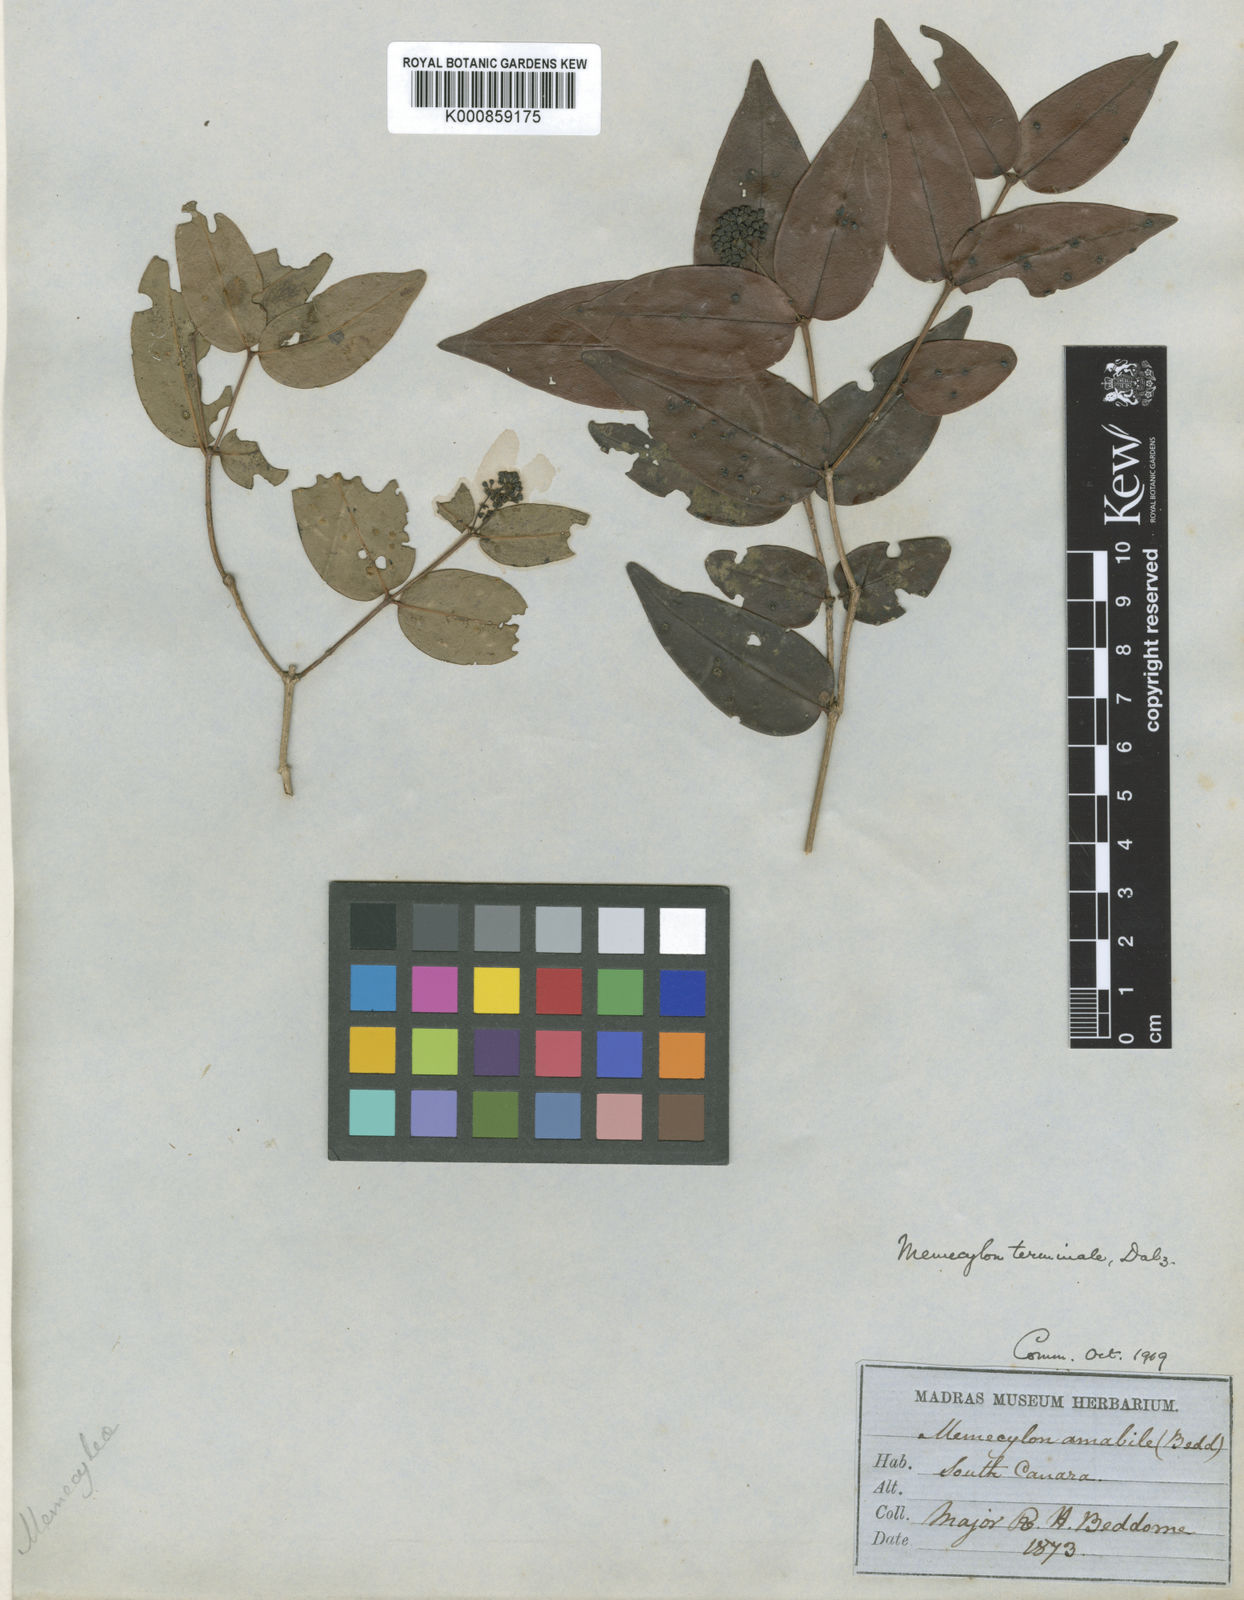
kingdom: Plantae
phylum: Tracheophyta
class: Magnoliopsida
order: Myrtales
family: Melastomataceae
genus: Memecylon
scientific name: Memecylon terminale
